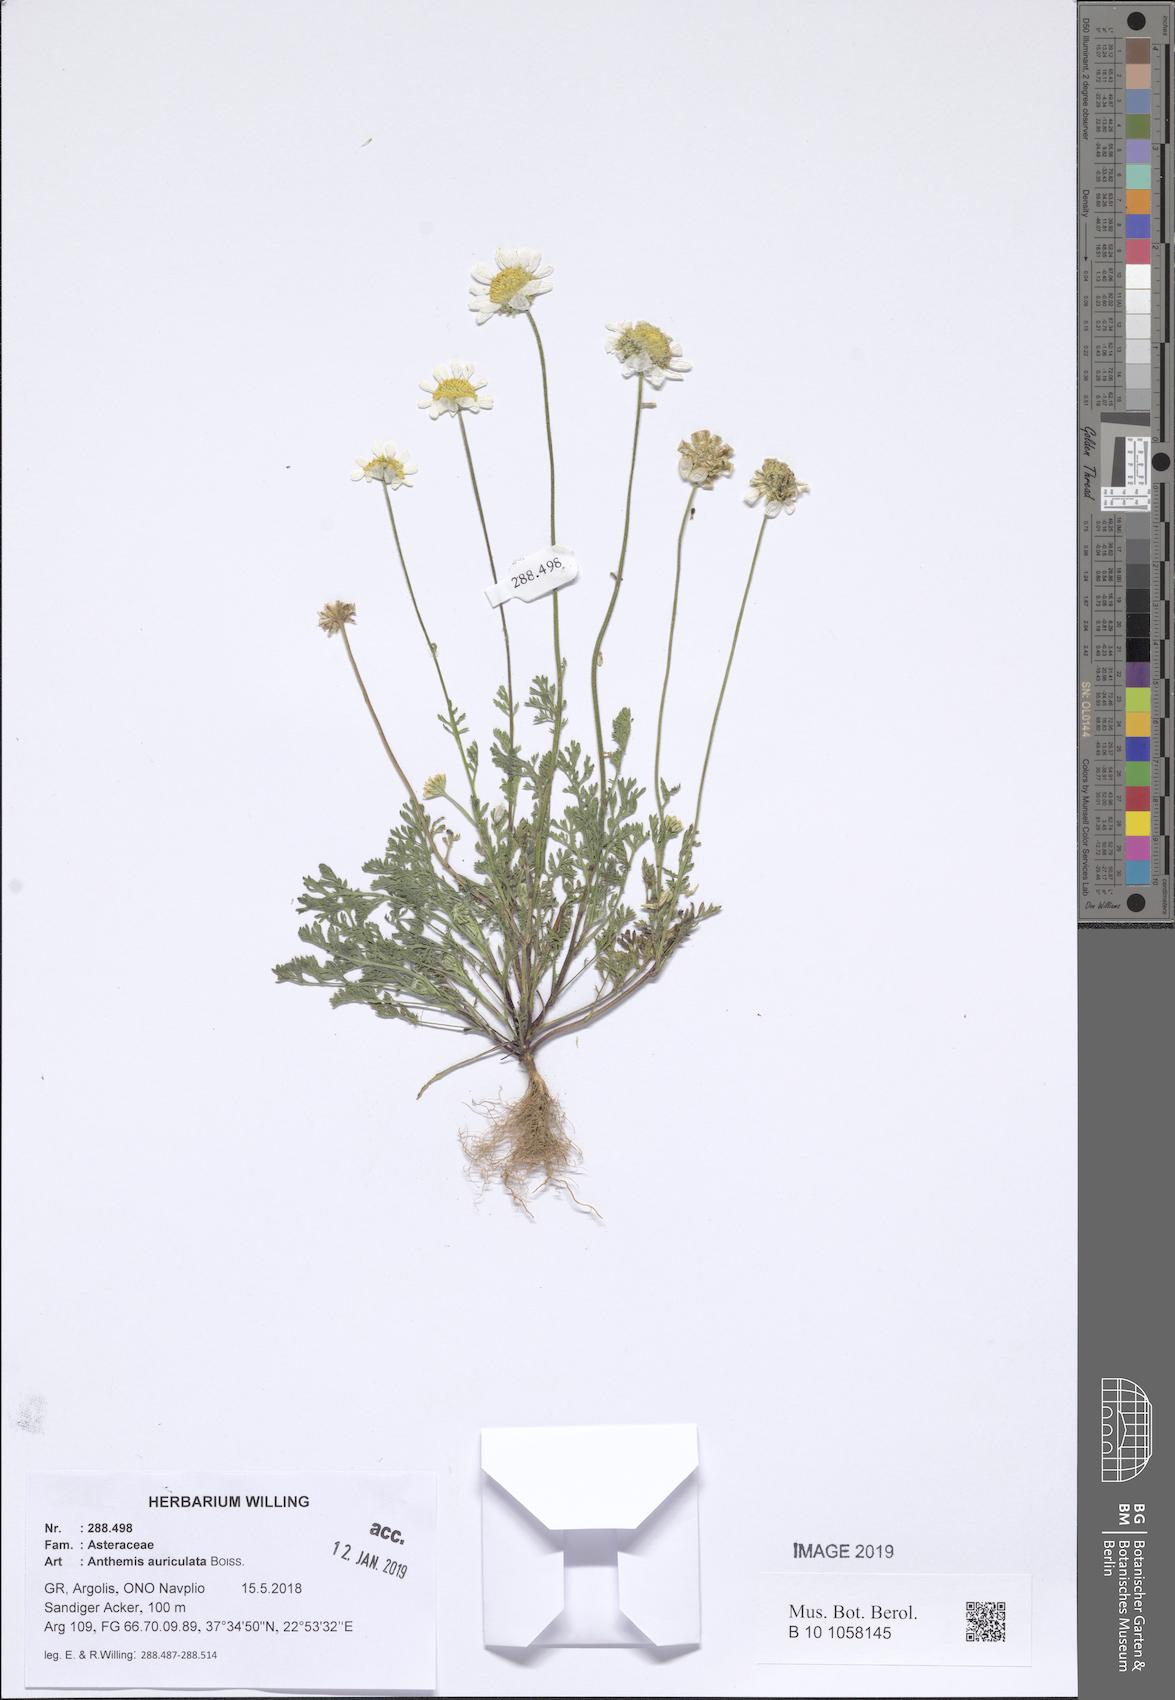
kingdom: Plantae
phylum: Tracheophyta
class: Magnoliopsida
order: Asterales
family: Asteraceae
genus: Anthemis
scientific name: Anthemis auriculata
